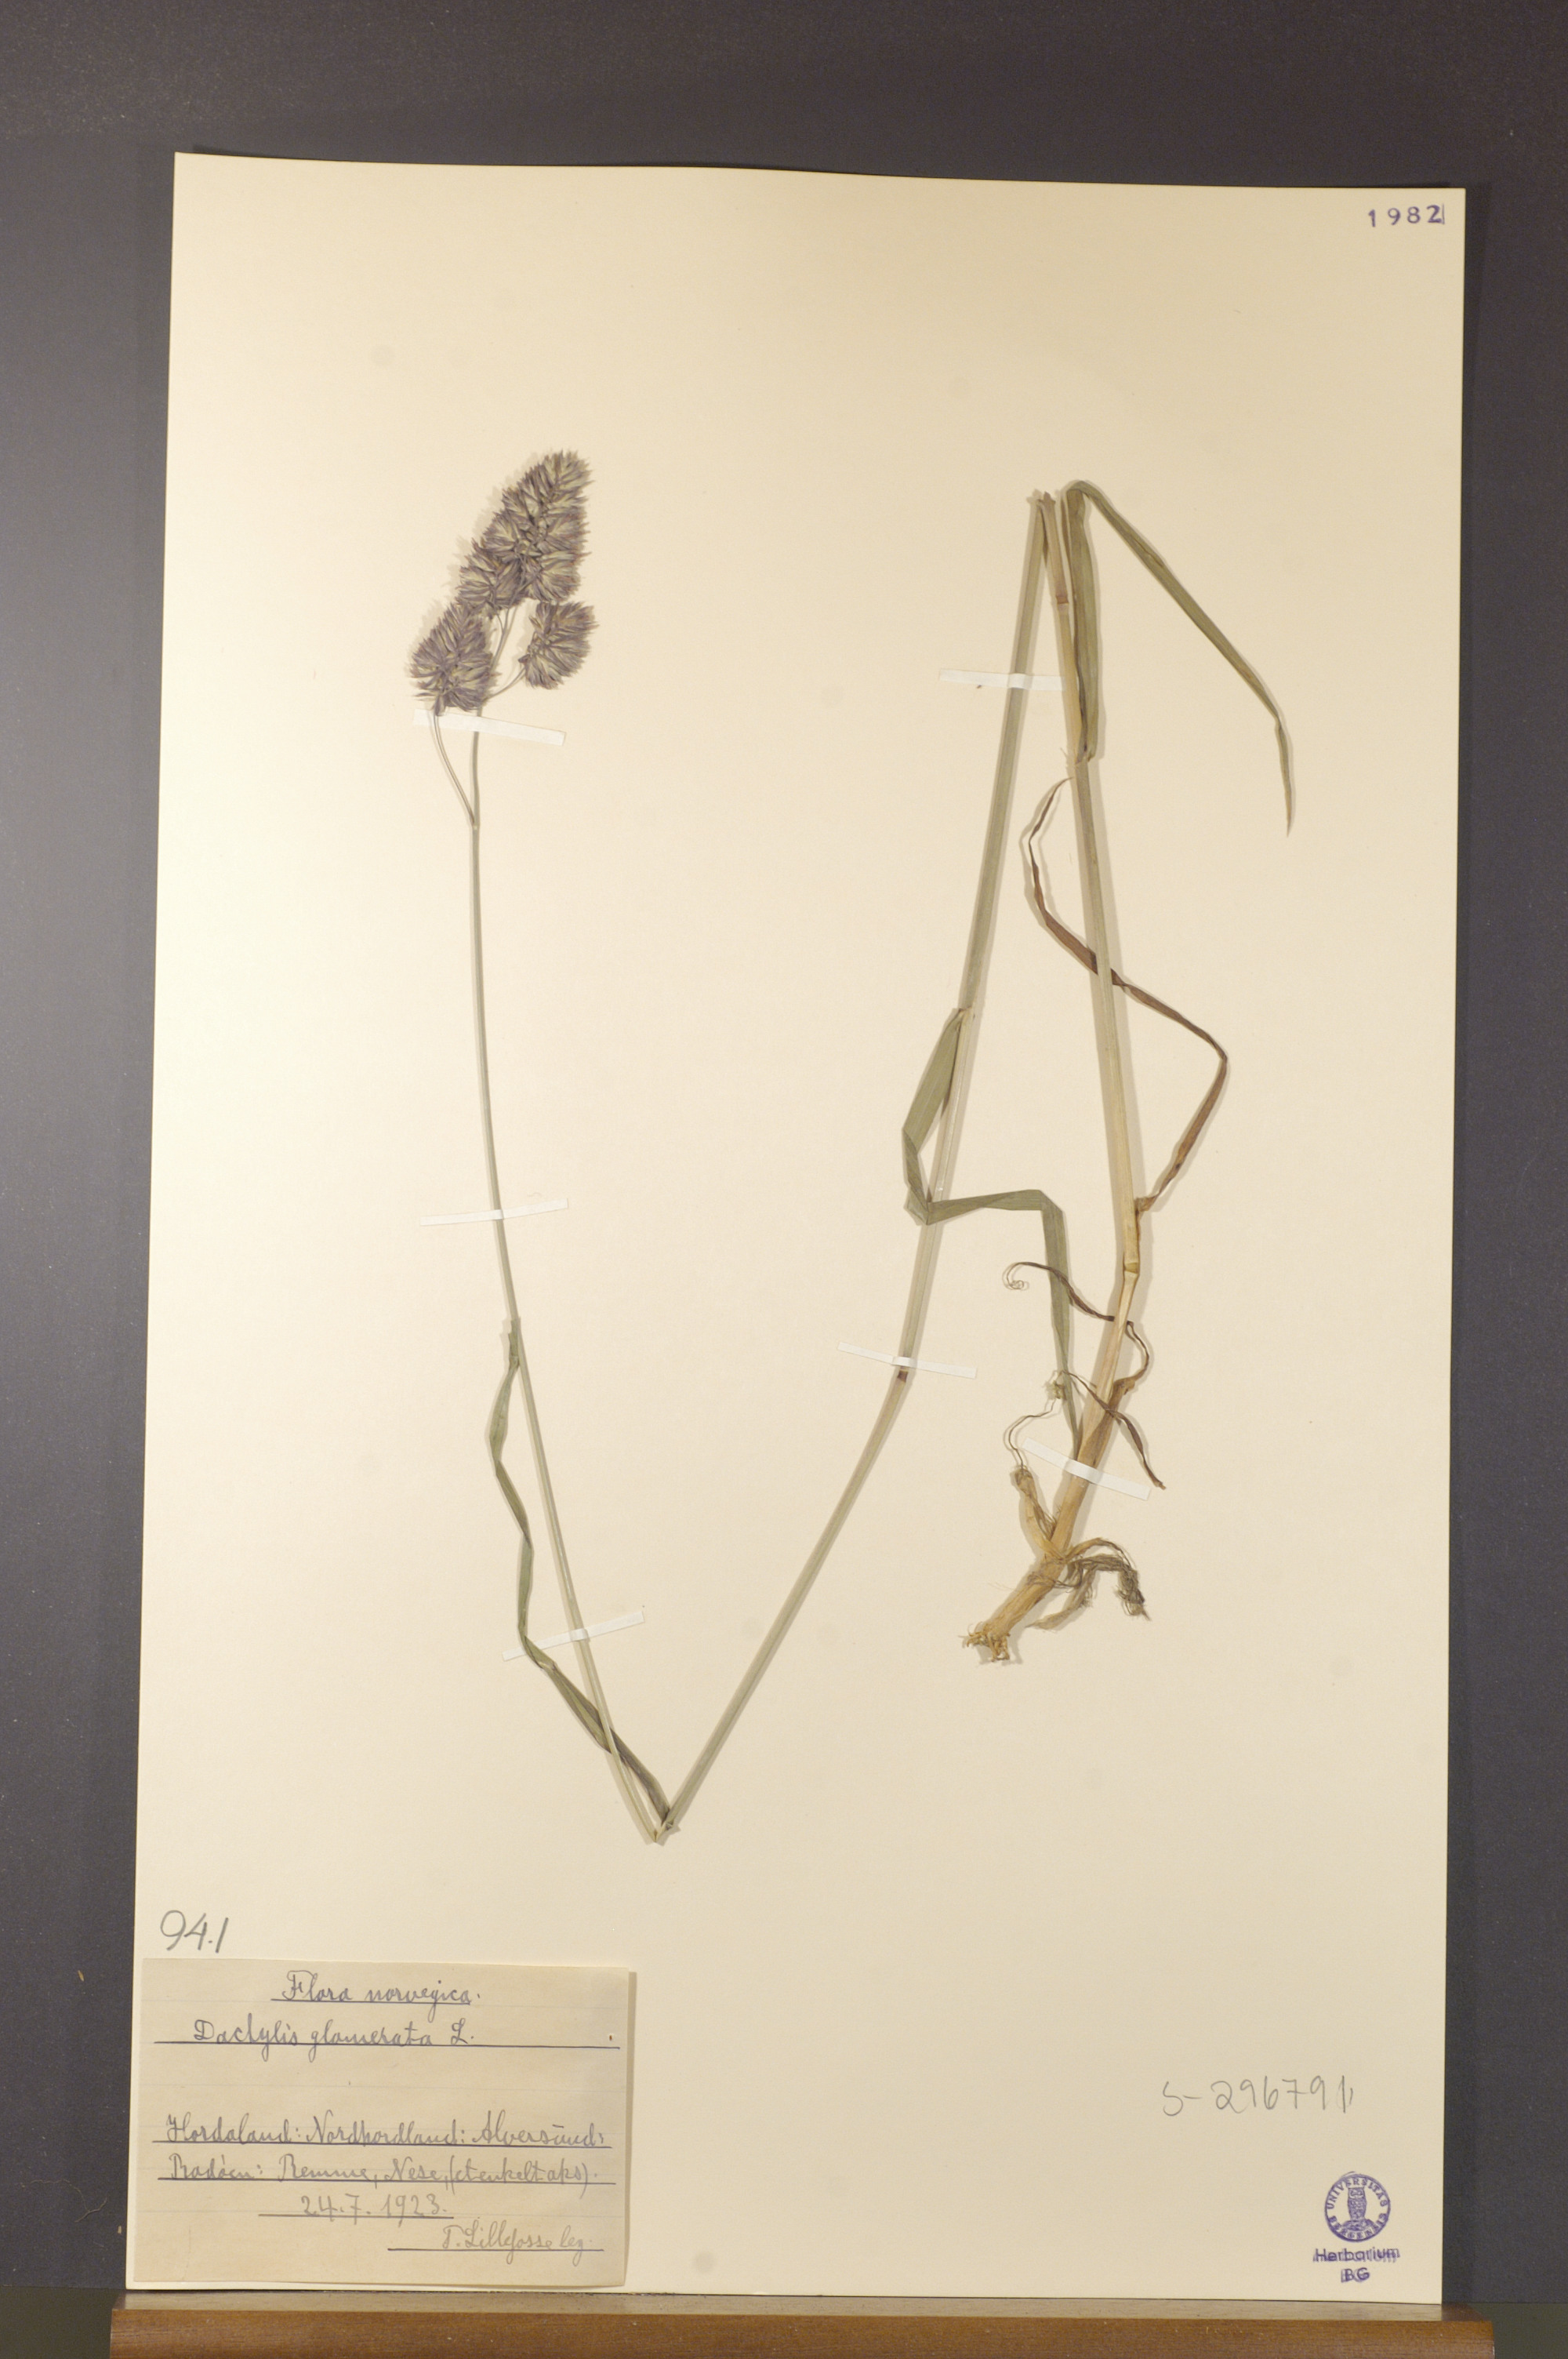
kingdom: Plantae
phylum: Tracheophyta
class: Liliopsida
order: Poales
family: Poaceae
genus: Dactylis
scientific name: Dactylis glomerata
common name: Orchardgrass
